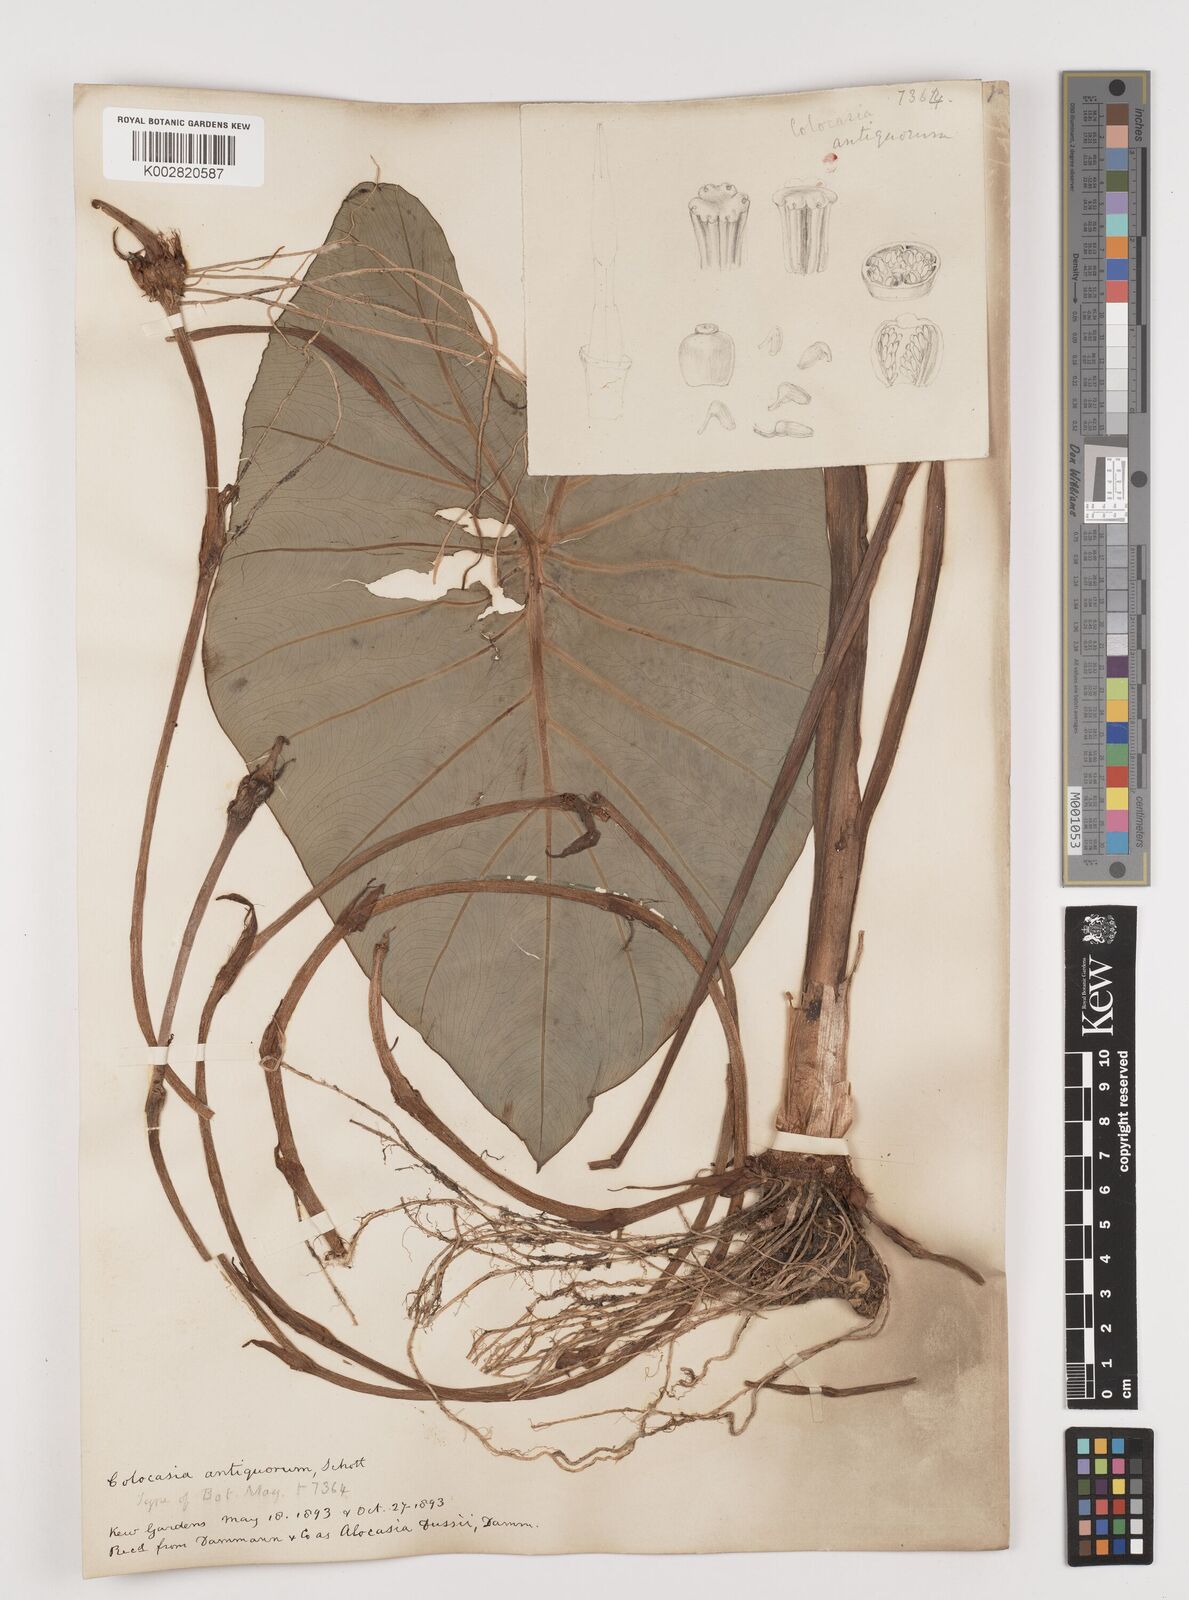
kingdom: Plantae
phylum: Tracheophyta
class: Liliopsida
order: Alismatales
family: Araceae
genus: Colocasia
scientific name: Colocasia esculenta
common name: Taro
